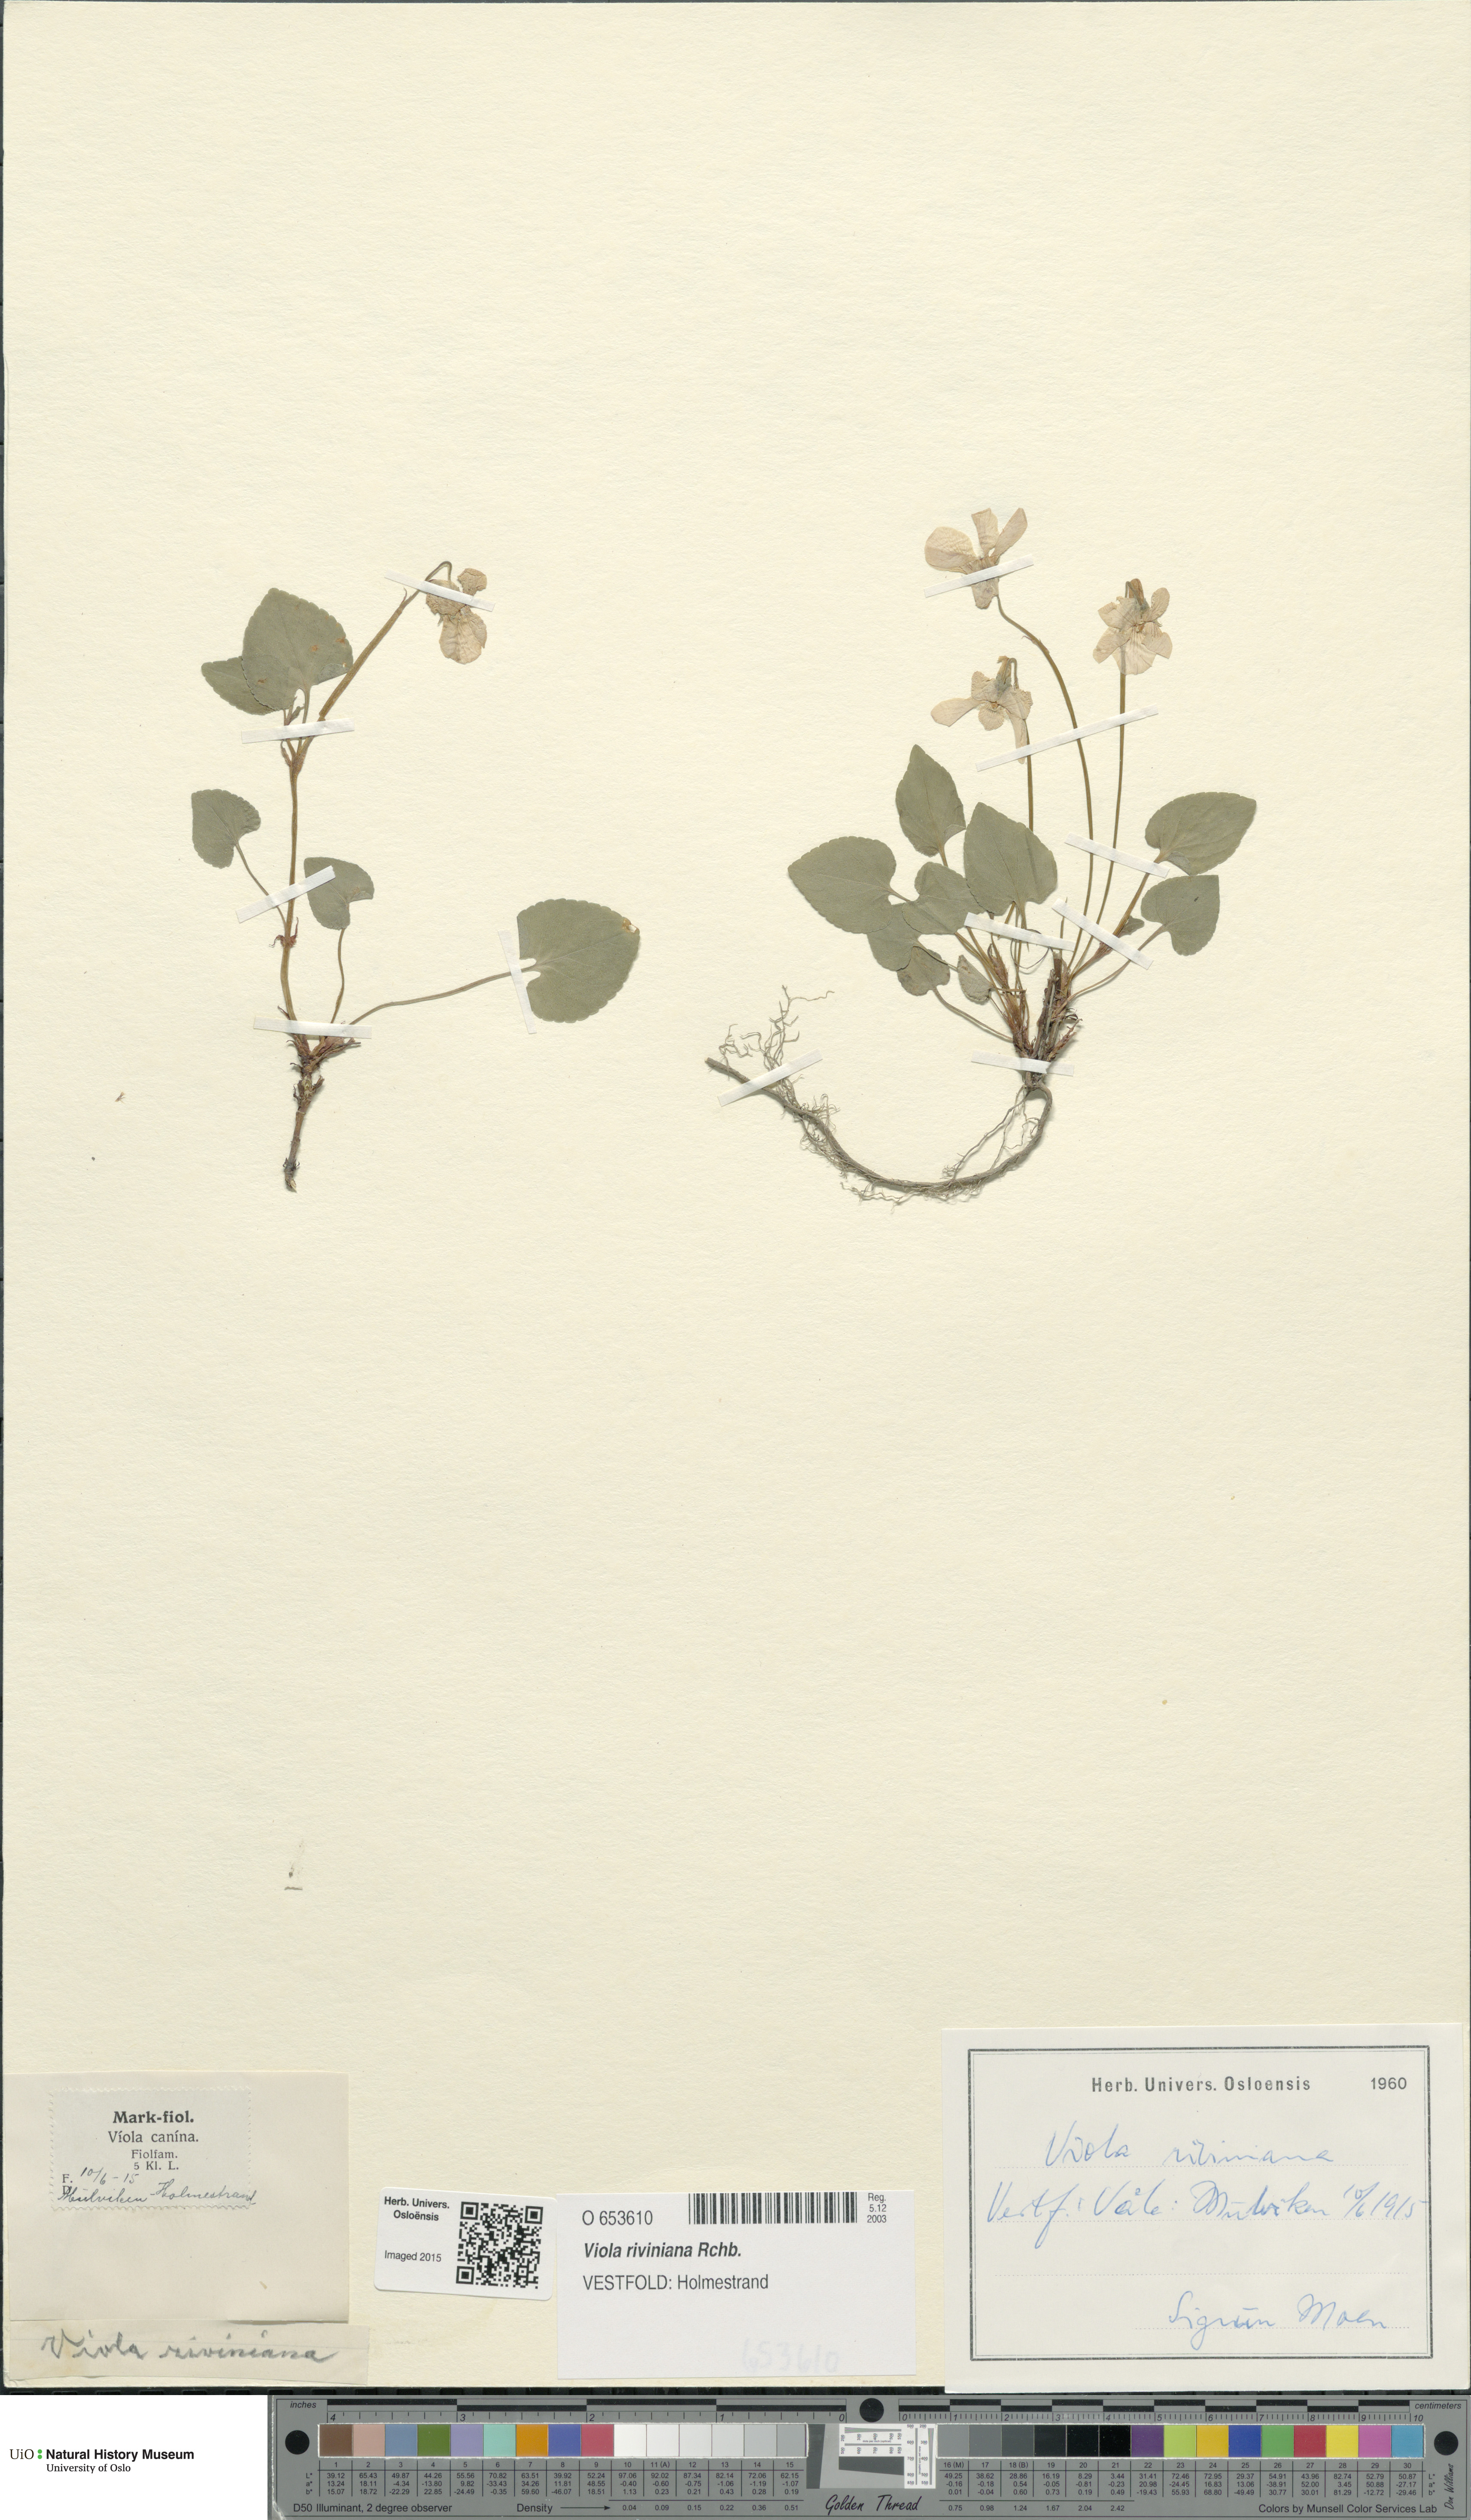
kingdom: Plantae
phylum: Tracheophyta
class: Magnoliopsida
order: Malpighiales
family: Violaceae
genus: Viola
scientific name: Viola riviniana
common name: Common dog-violet
